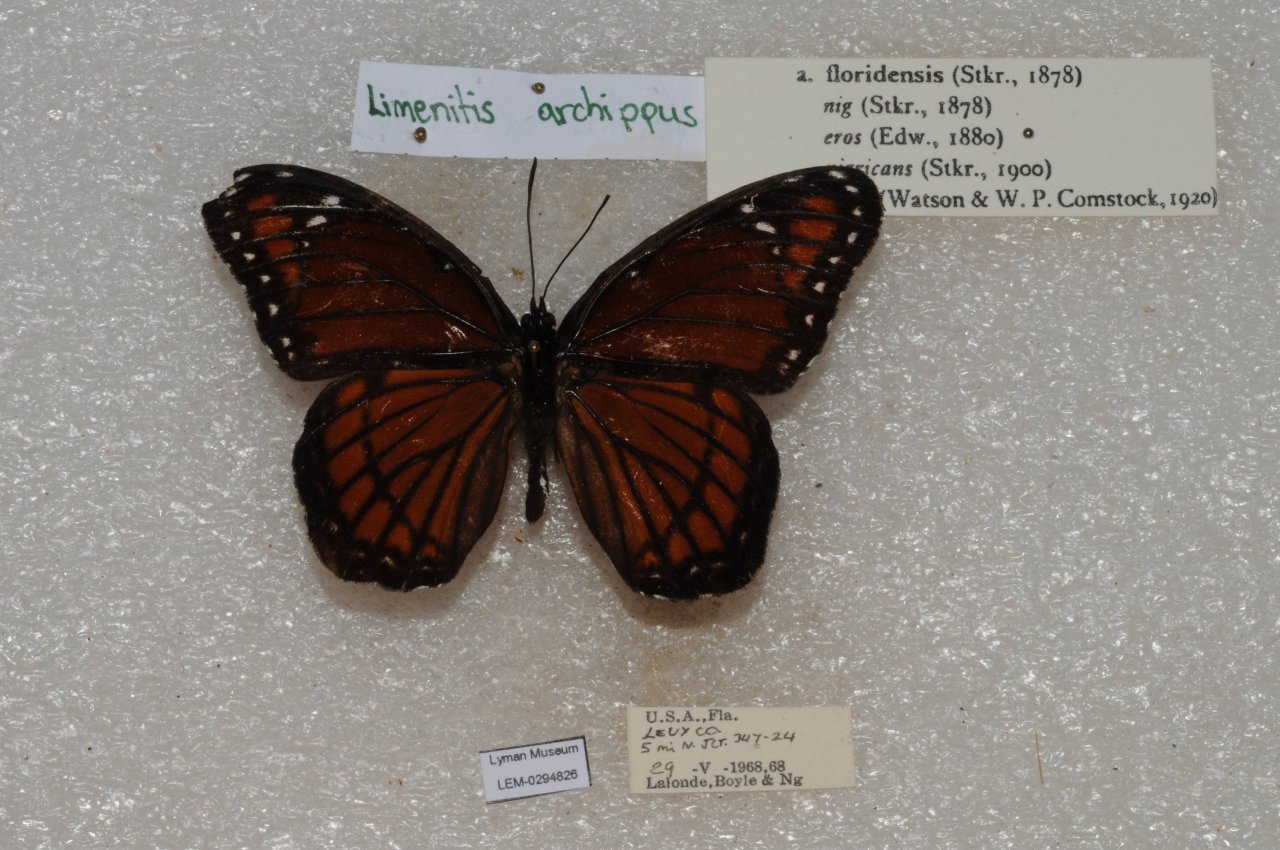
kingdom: Animalia
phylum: Arthropoda
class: Insecta
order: Lepidoptera
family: Nymphalidae
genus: Limenitis
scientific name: Limenitis archippus
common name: Viceroy
